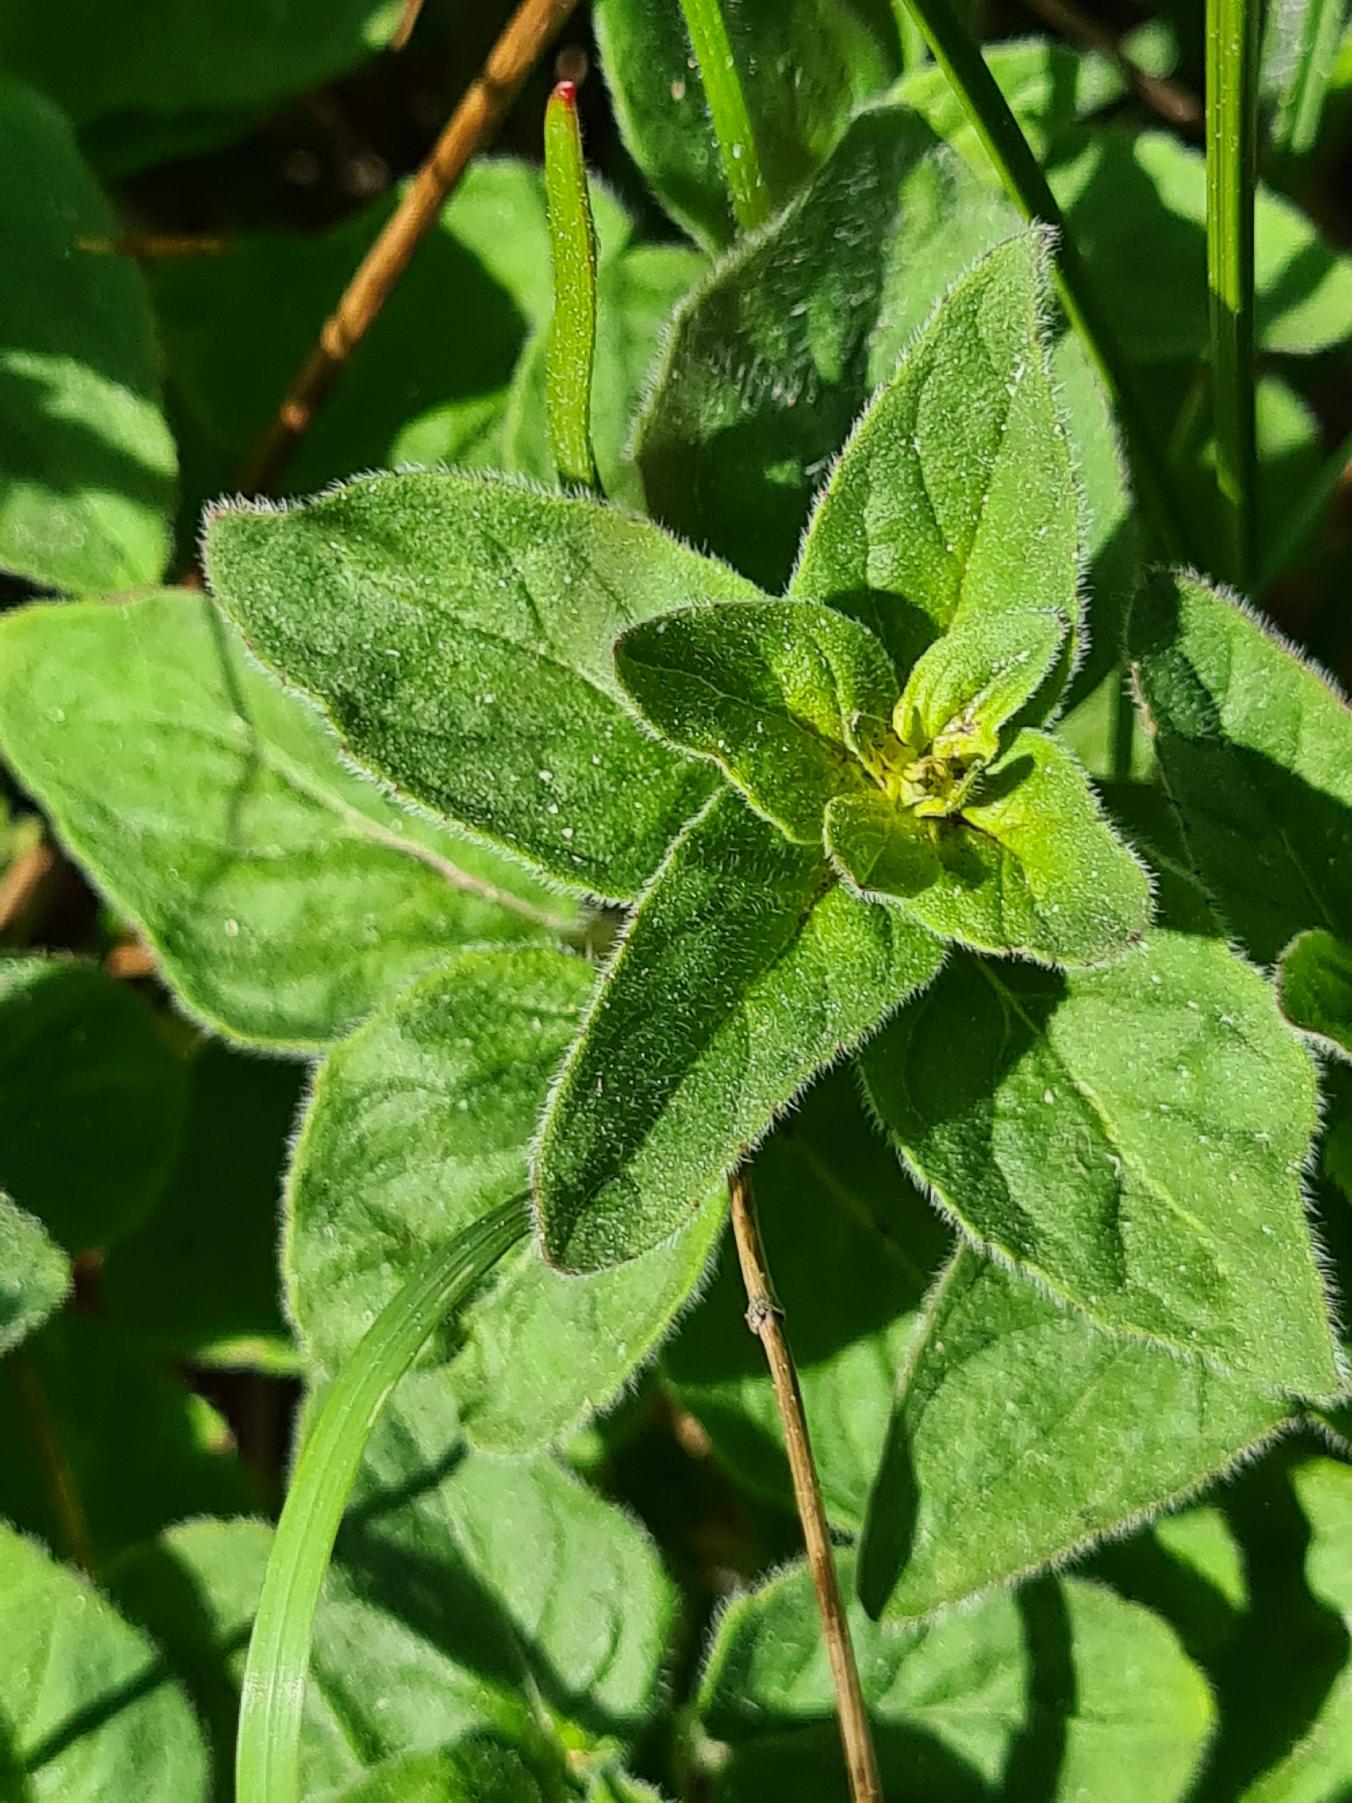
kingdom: Plantae
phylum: Tracheophyta
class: Magnoliopsida
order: Lamiales
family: Lamiaceae
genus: Origanum
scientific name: Origanum vulgare
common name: Merian
